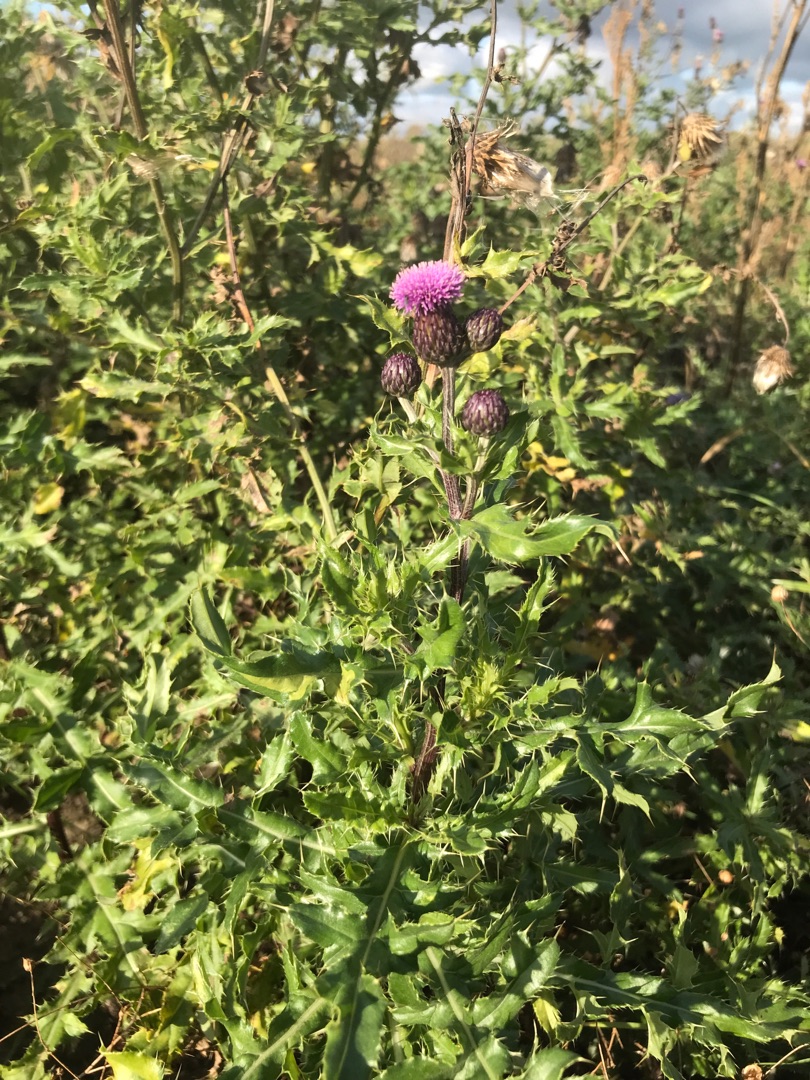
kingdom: Plantae
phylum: Tracheophyta
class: Magnoliopsida
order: Asterales
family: Asteraceae
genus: Cirsium
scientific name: Cirsium arvense
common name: Ager-tidsel
